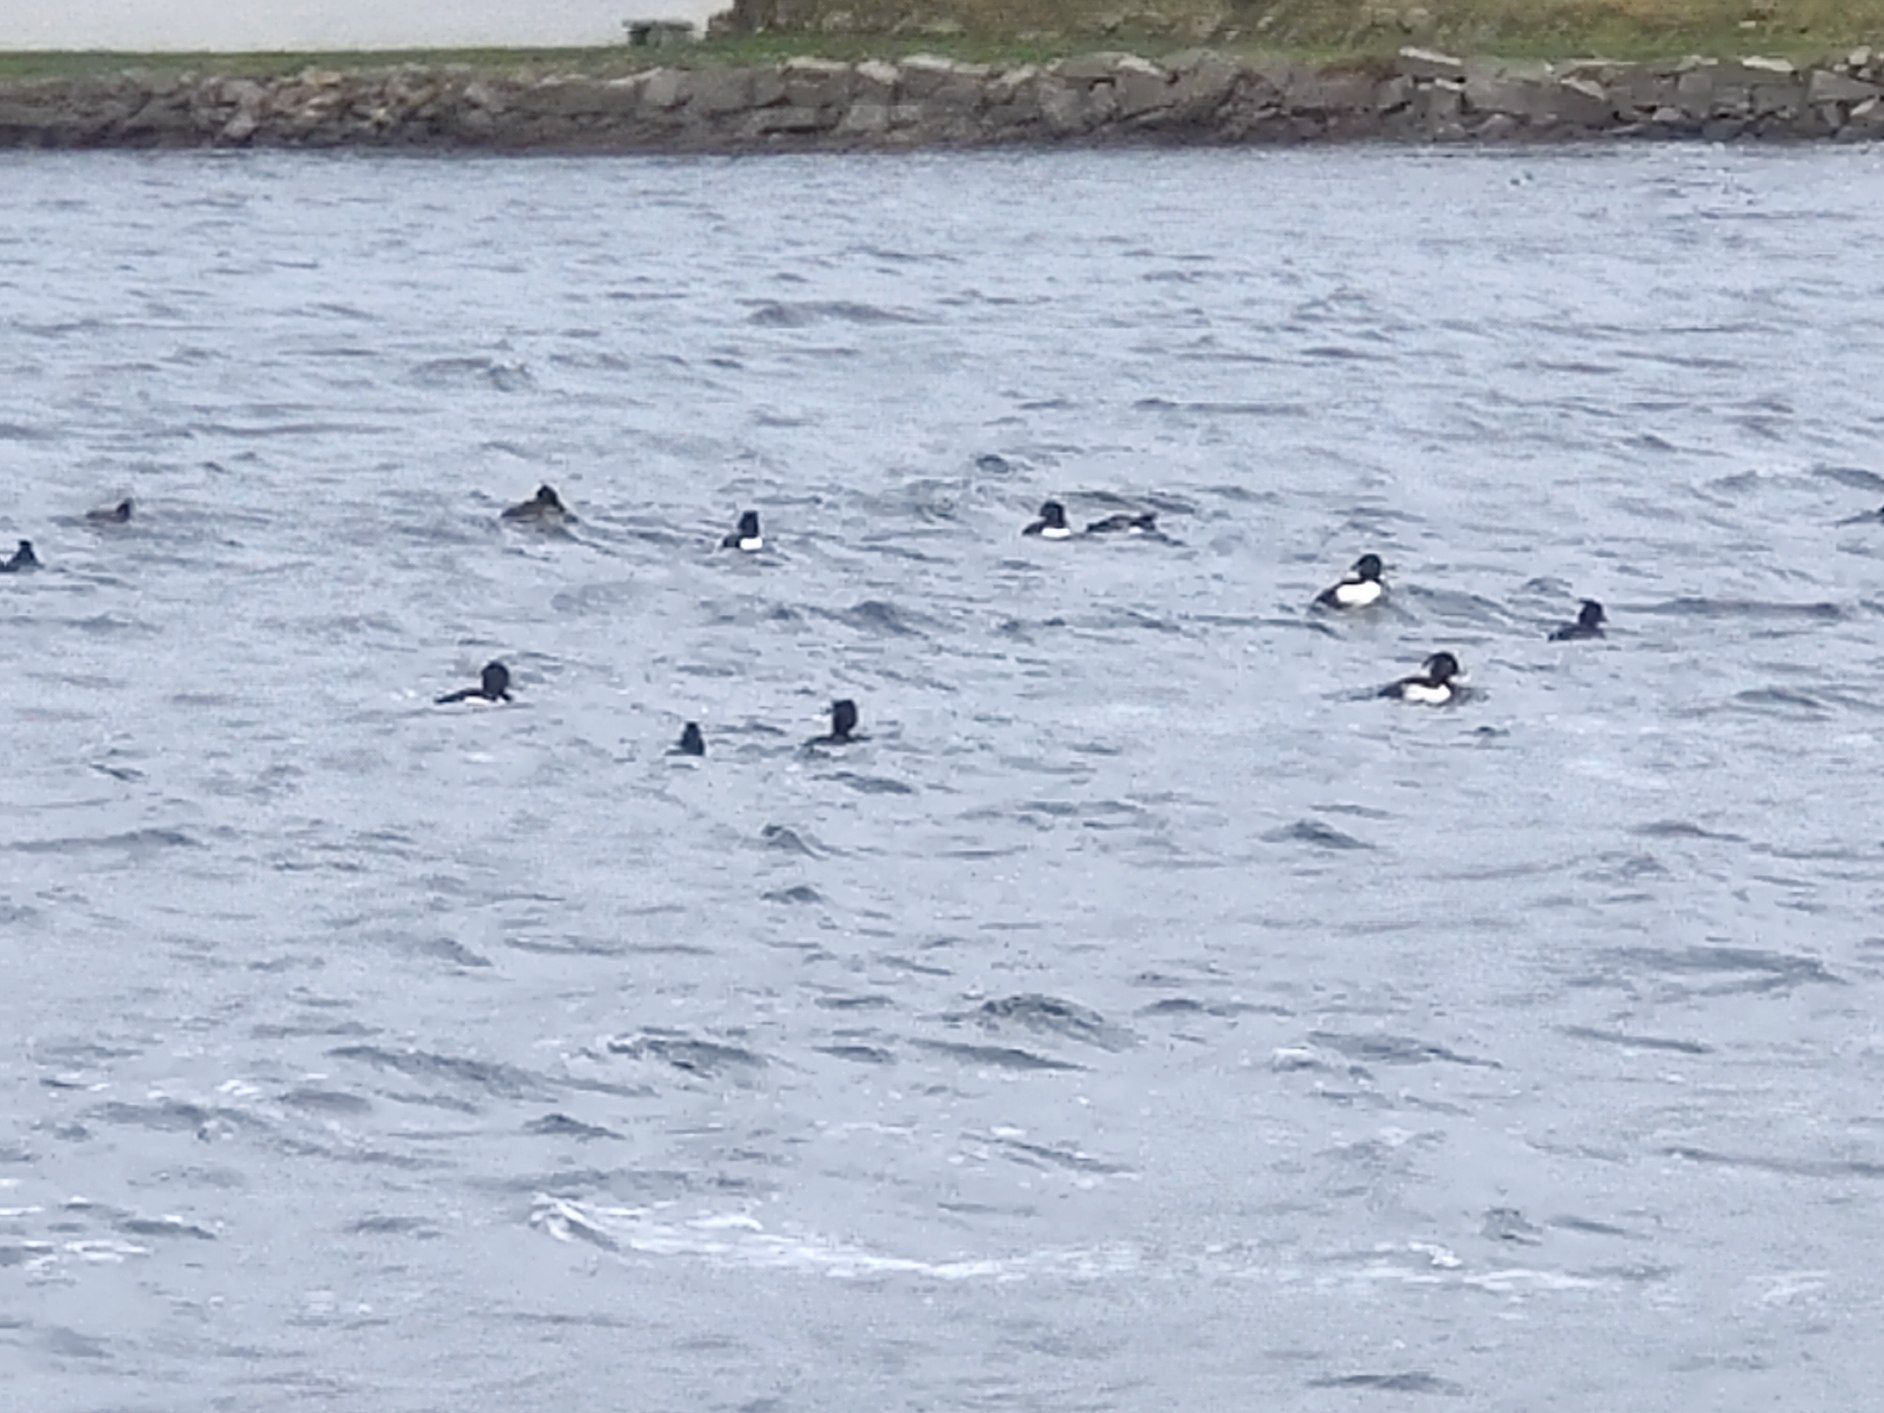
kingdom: Animalia
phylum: Chordata
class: Aves
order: Anseriformes
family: Anatidae
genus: Aythya
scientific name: Aythya fuligula
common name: Troldand
